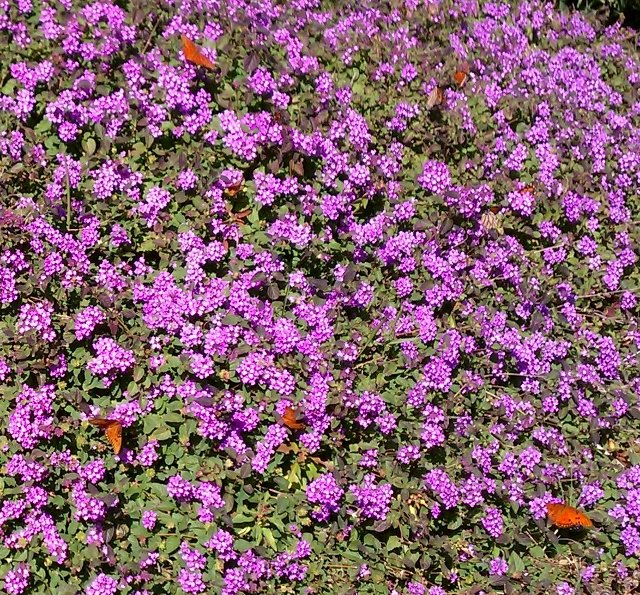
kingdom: Animalia
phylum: Arthropoda
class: Insecta
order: Lepidoptera
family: Nymphalidae
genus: Dione
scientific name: Dione vanillae
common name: Gulf Fritillary
